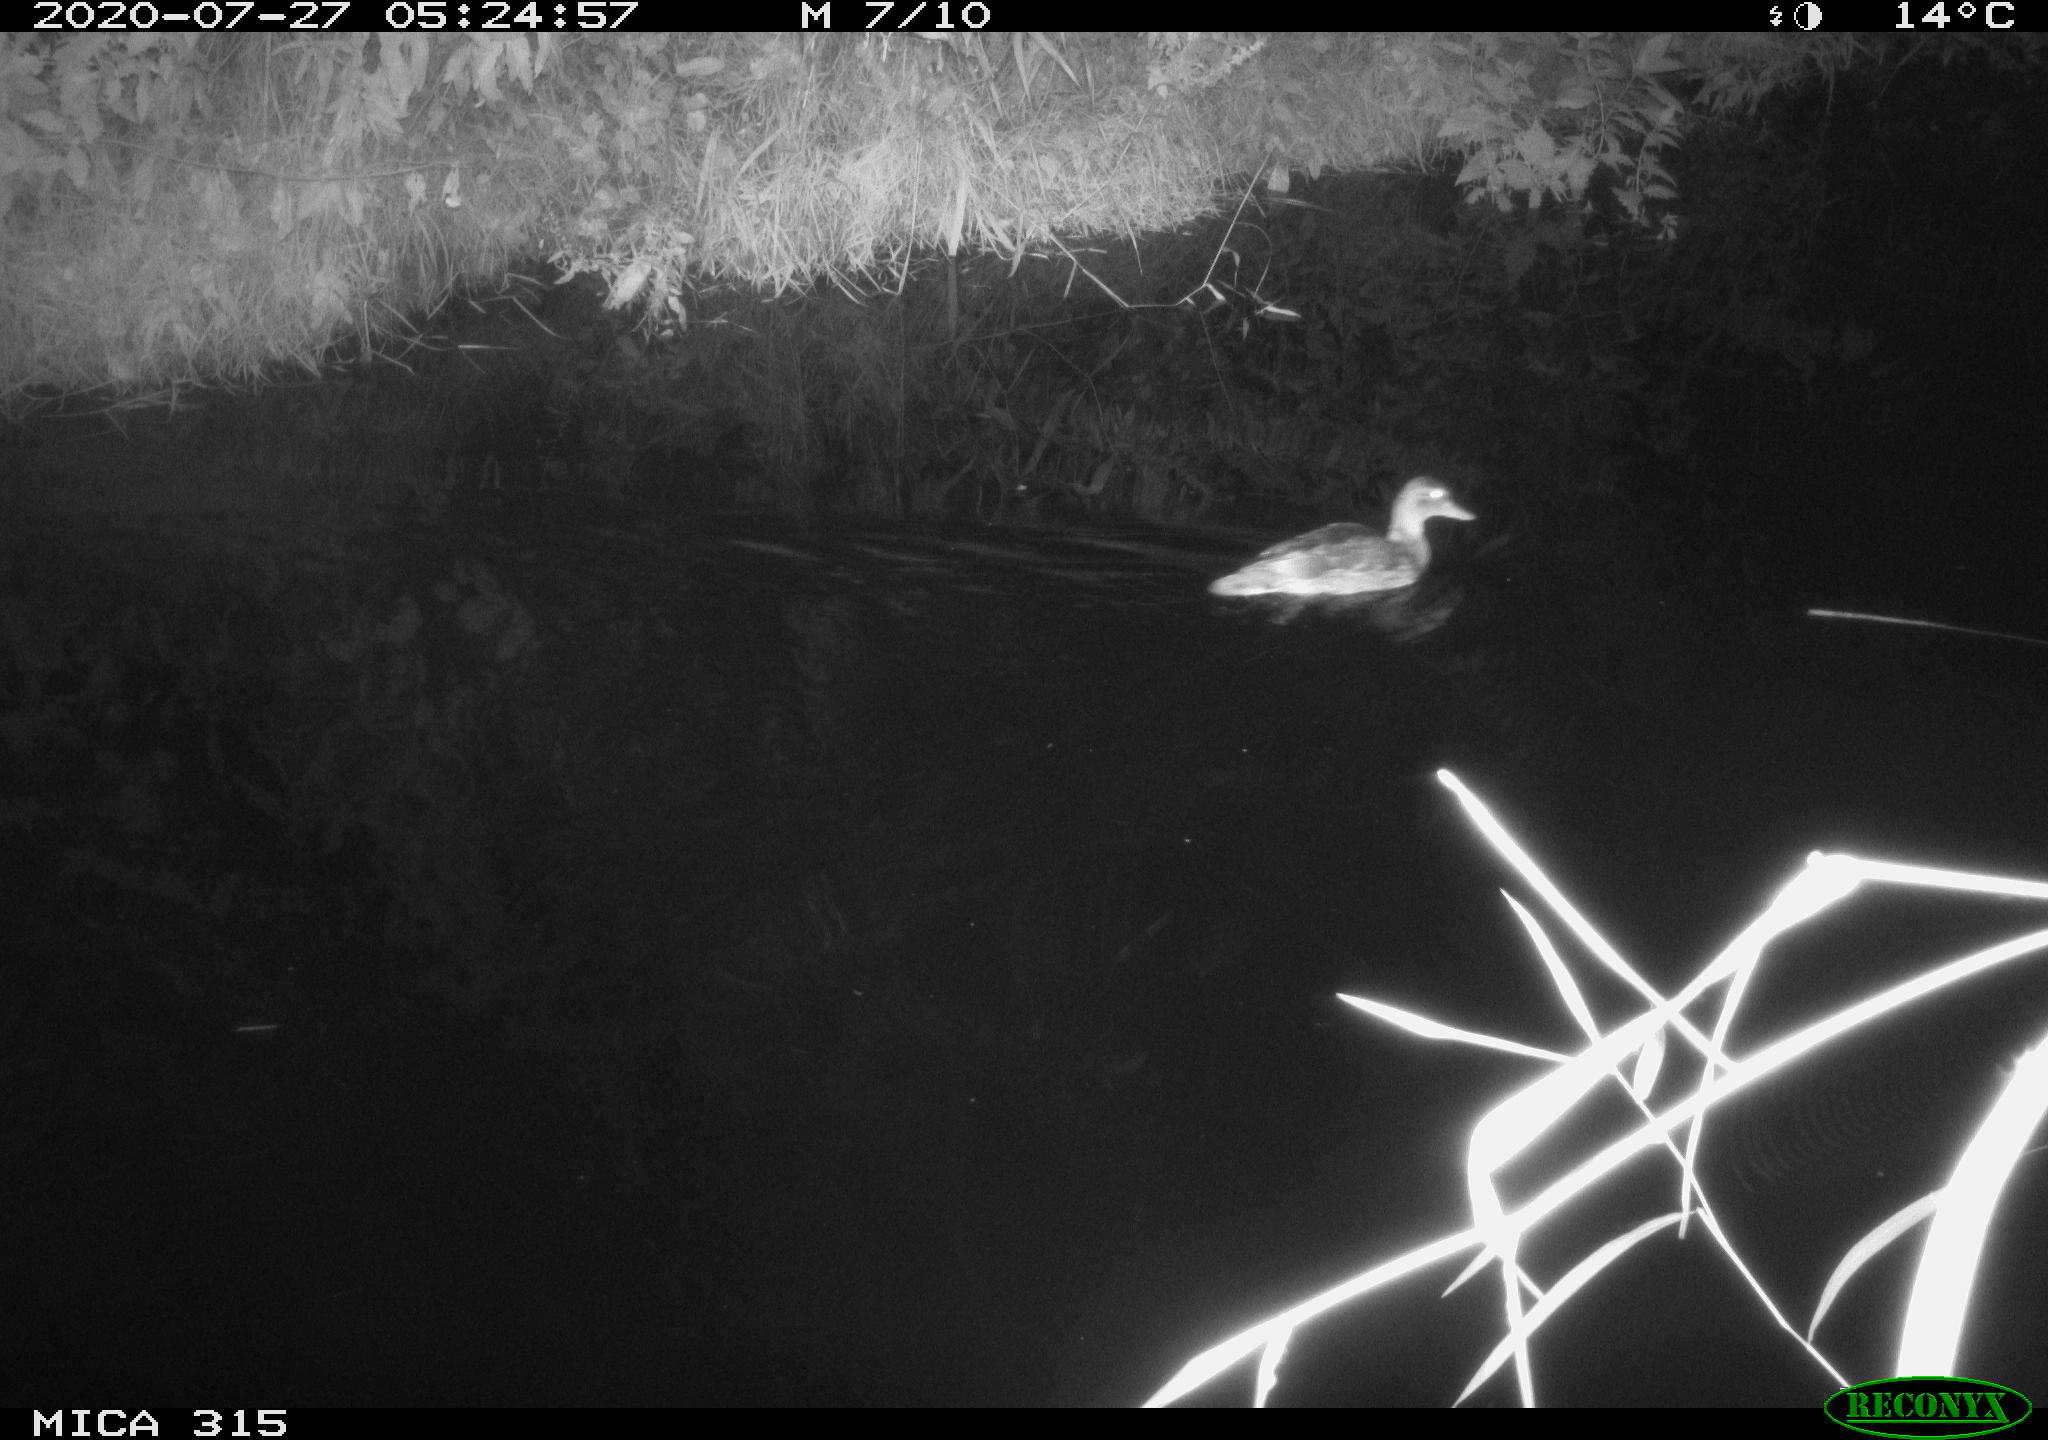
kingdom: Animalia
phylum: Chordata
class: Aves
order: Anseriformes
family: Anatidae
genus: Anas
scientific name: Anas platyrhynchos
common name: Mallard
